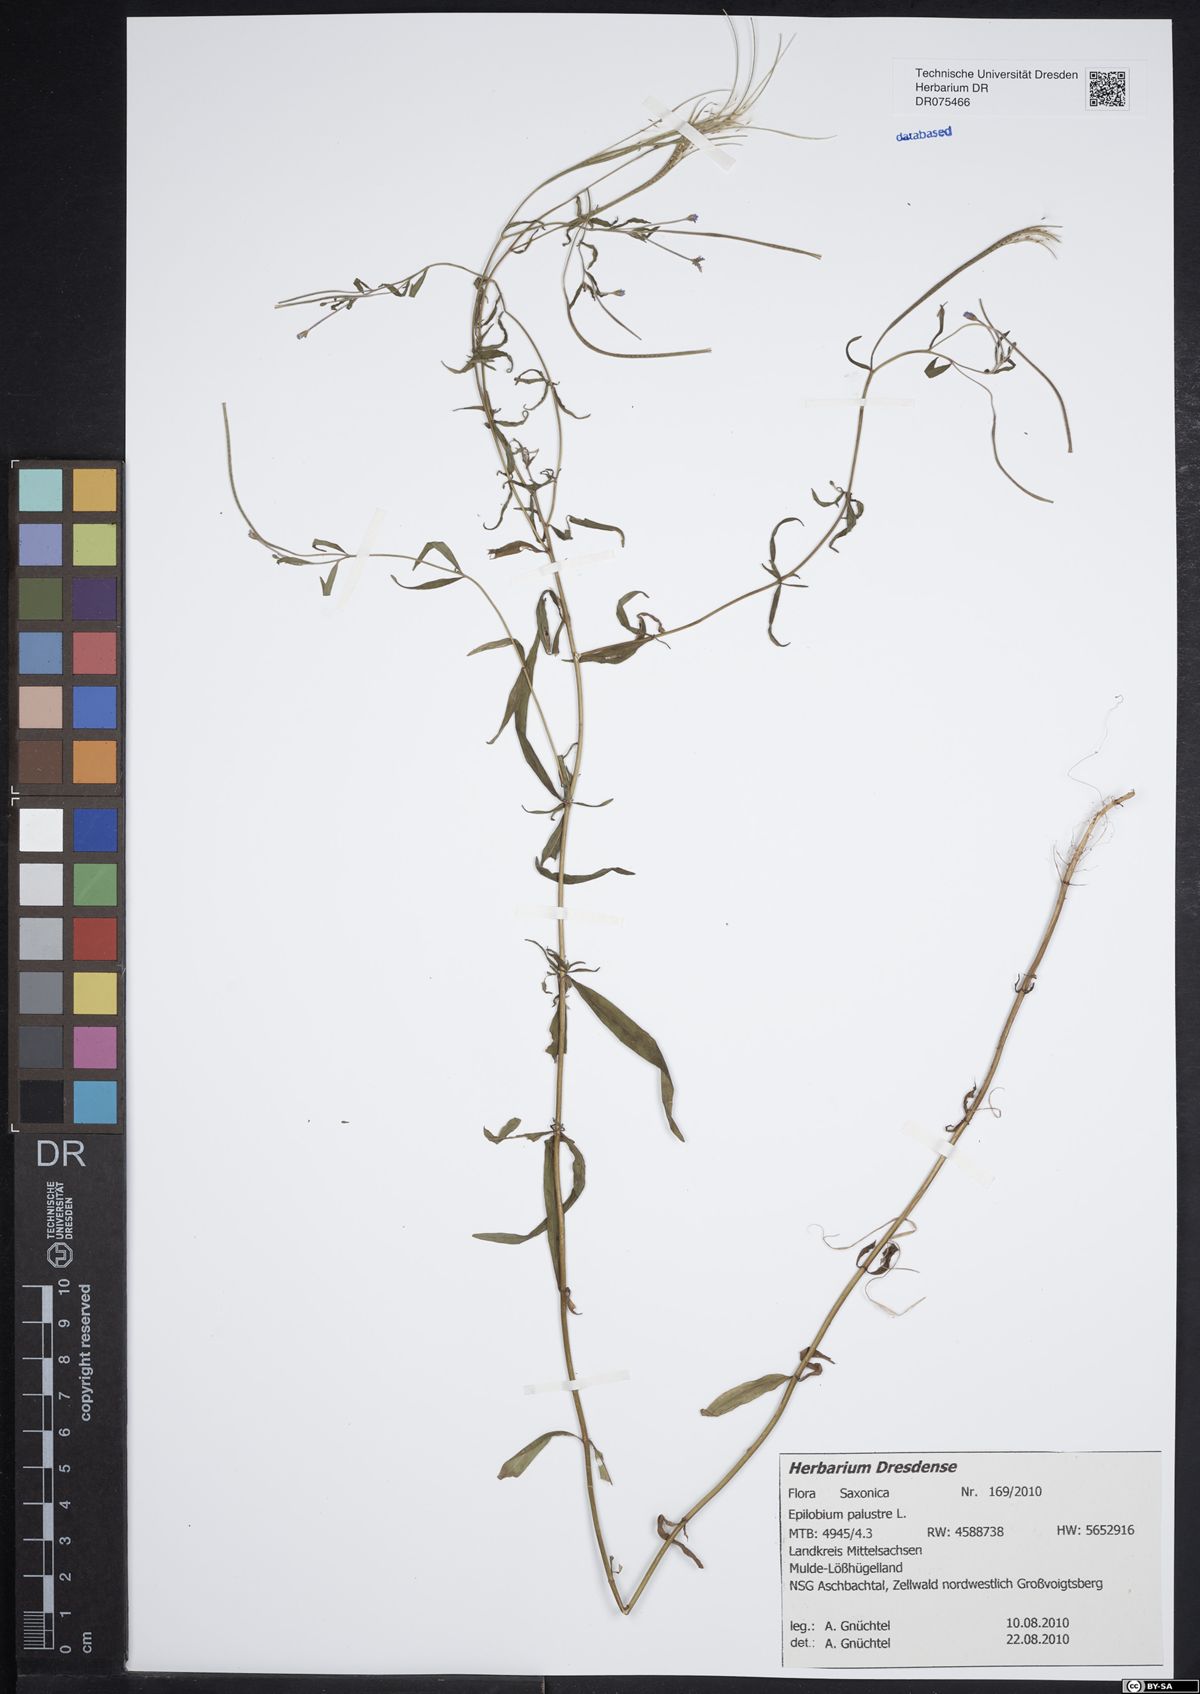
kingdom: Plantae
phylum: Tracheophyta
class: Magnoliopsida
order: Myrtales
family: Onagraceae
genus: Epilobium
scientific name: Epilobium palustre
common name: Marsh willowherb
